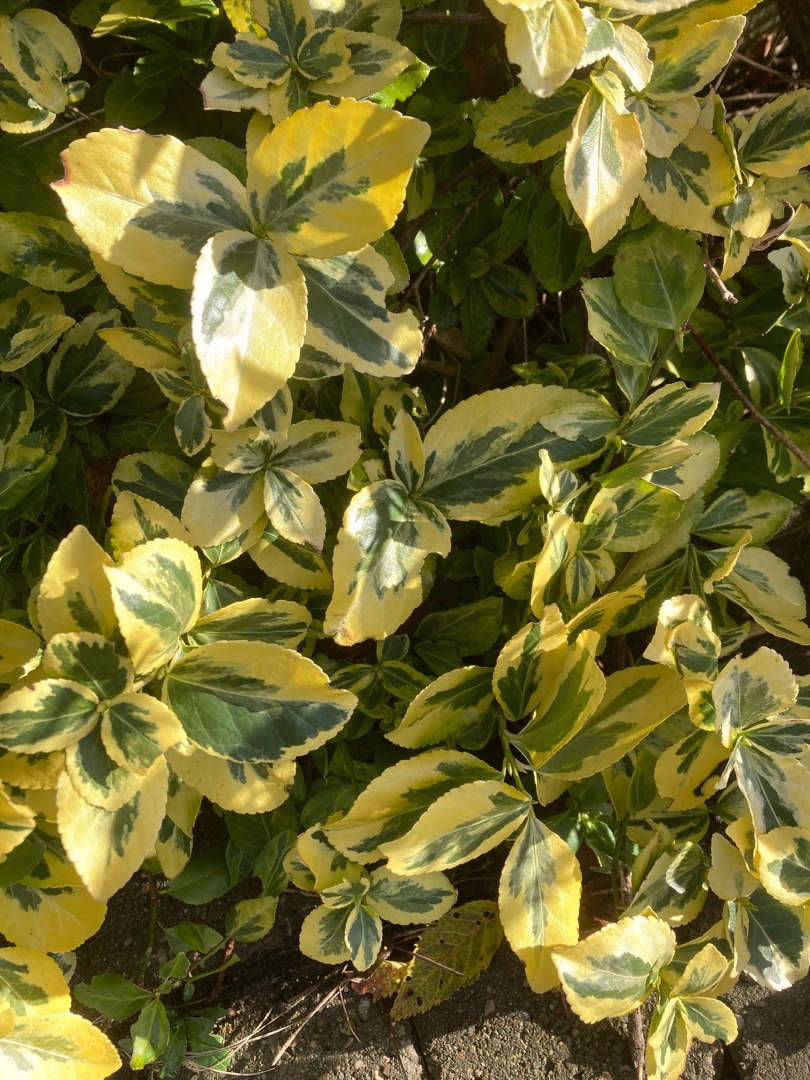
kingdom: Plantae
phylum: Tracheophyta
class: Magnoliopsida
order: Celastrales
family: Celastraceae
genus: Euonymus
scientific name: Euonymus japonicus
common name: Japansk benved
